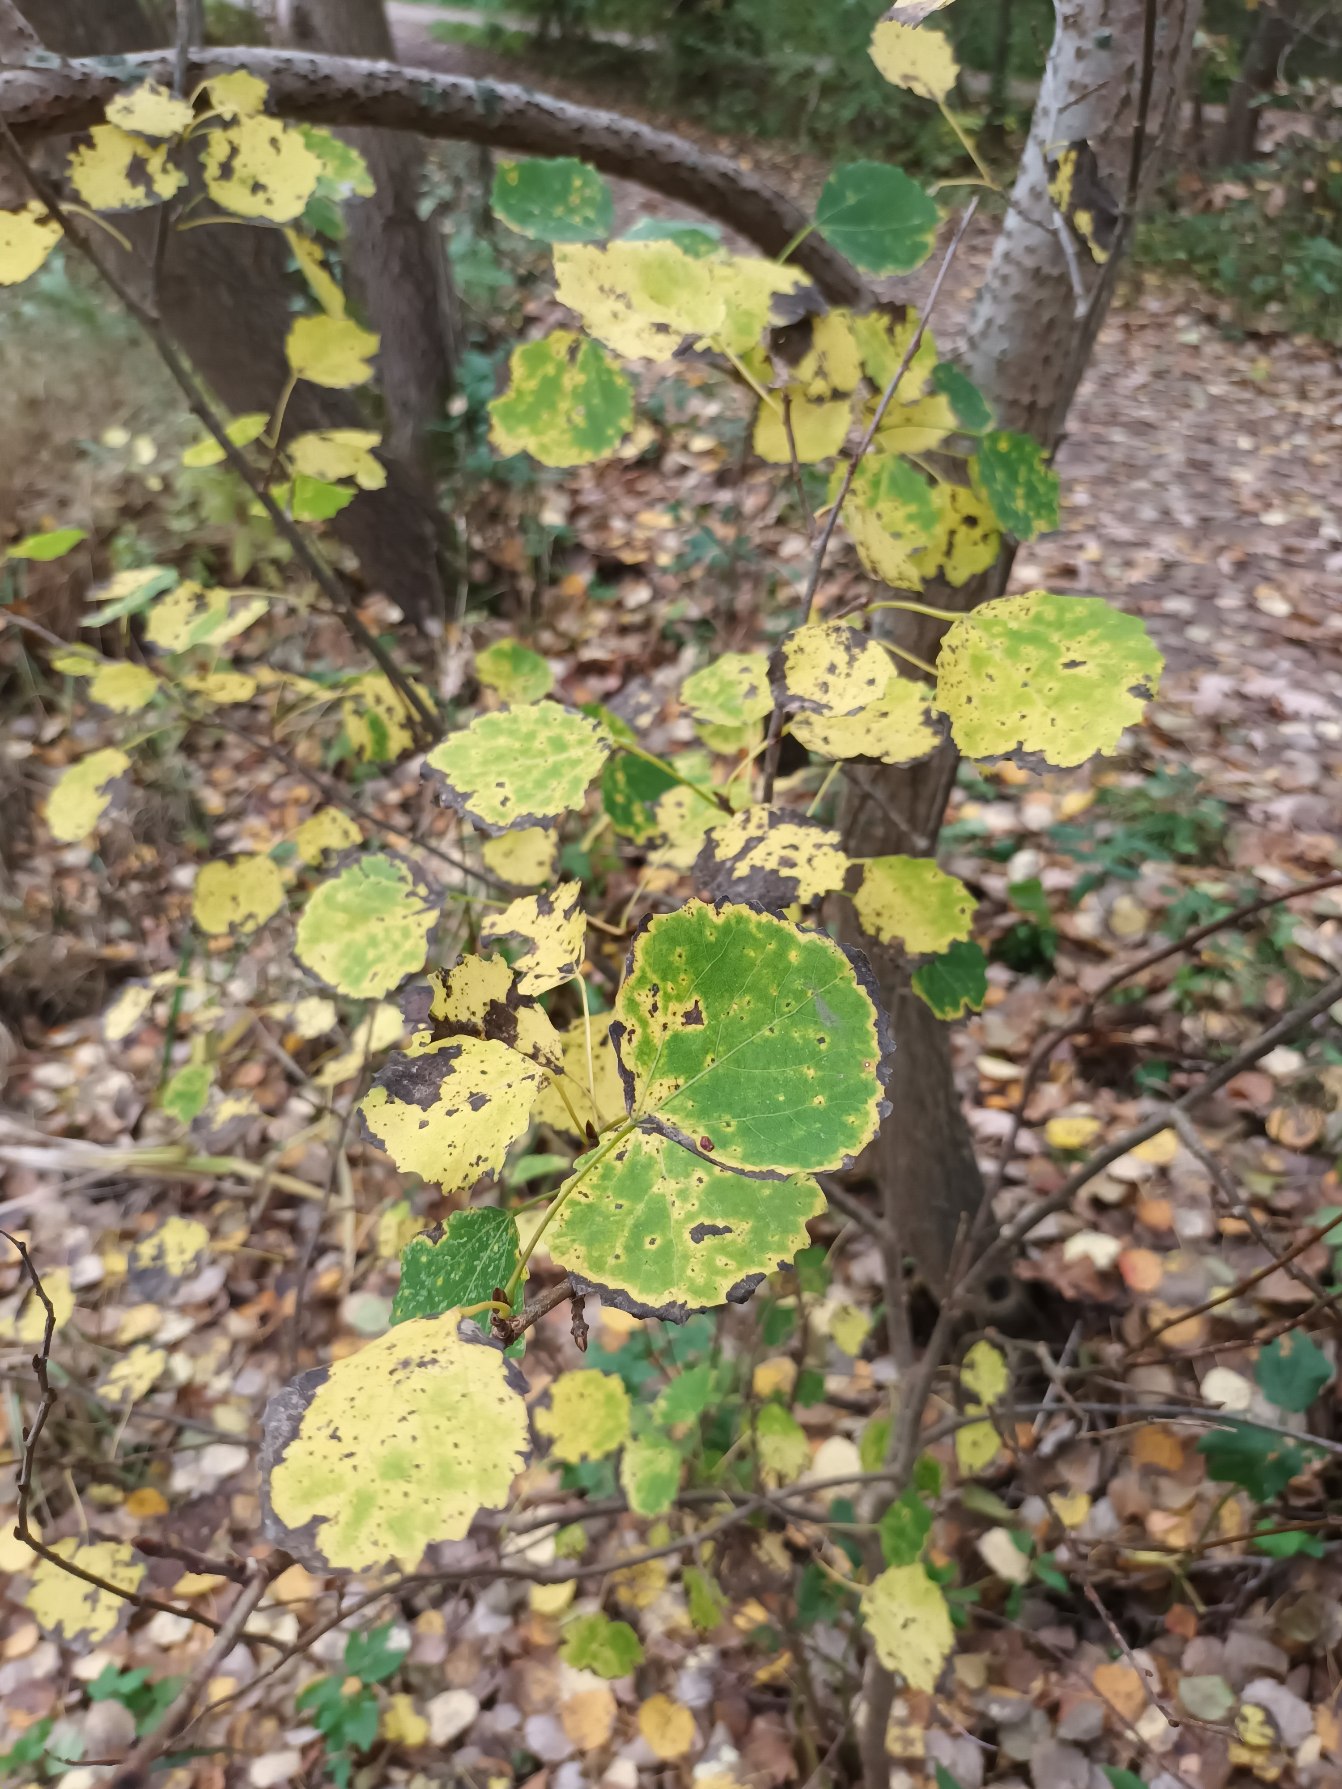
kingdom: Plantae
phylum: Tracheophyta
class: Magnoliopsida
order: Malpighiales
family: Salicaceae
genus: Populus
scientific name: Populus tremula
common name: Bævreasp
